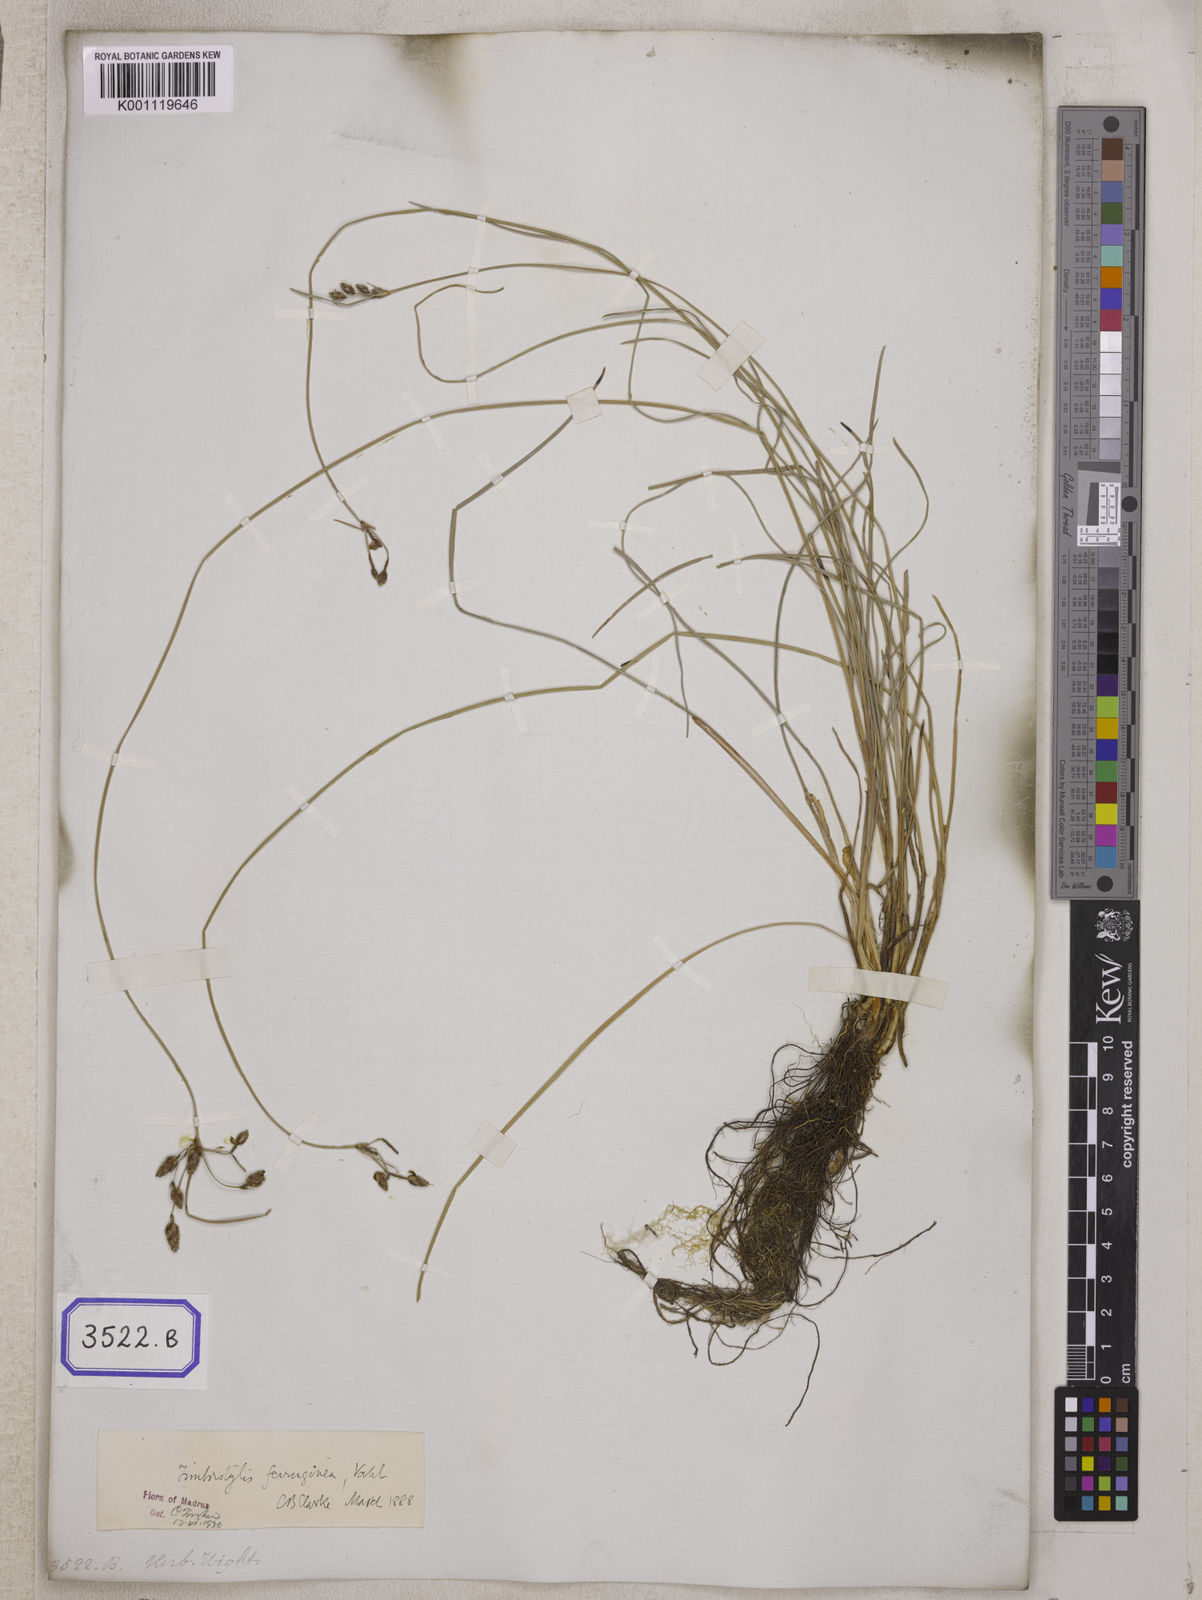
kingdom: Plantae
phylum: Tracheophyta
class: Liliopsida
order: Poales
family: Cyperaceae
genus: Fimbristylis
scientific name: Fimbristylis
